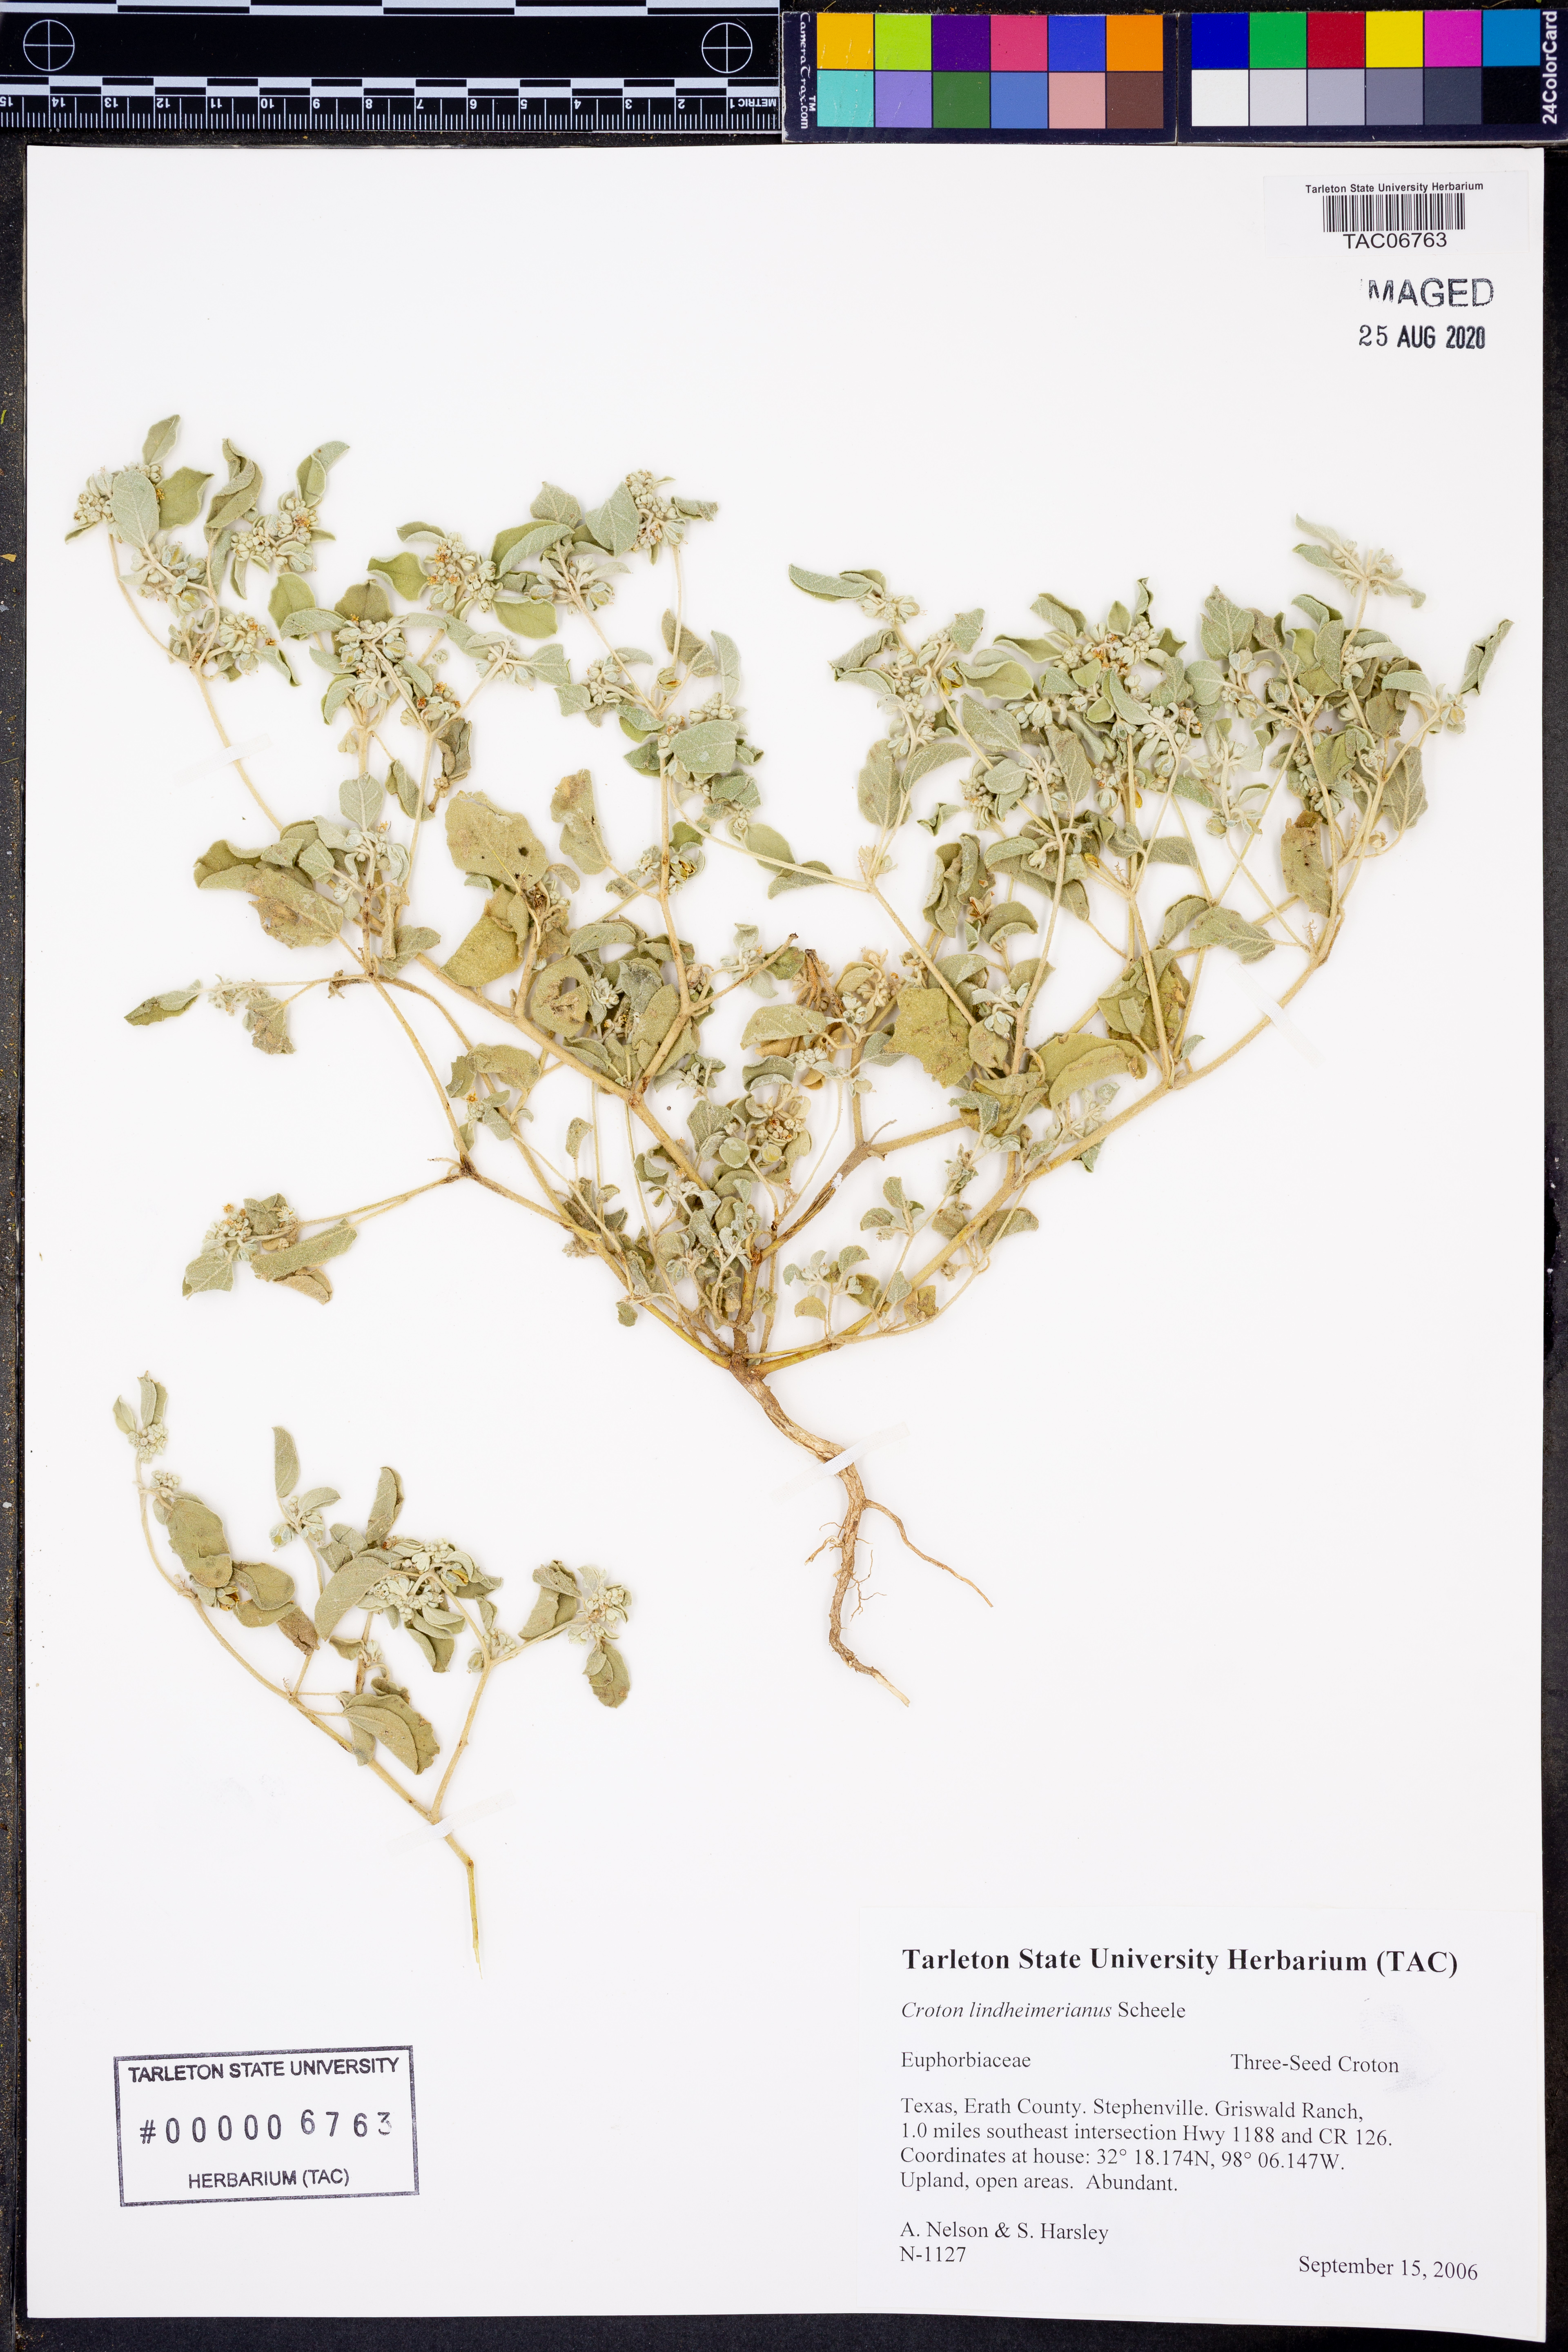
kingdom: Plantae
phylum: Tracheophyta
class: Magnoliopsida
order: Malpighiales
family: Euphorbiaceae
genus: Croton
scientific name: Croton lindheimerianus
